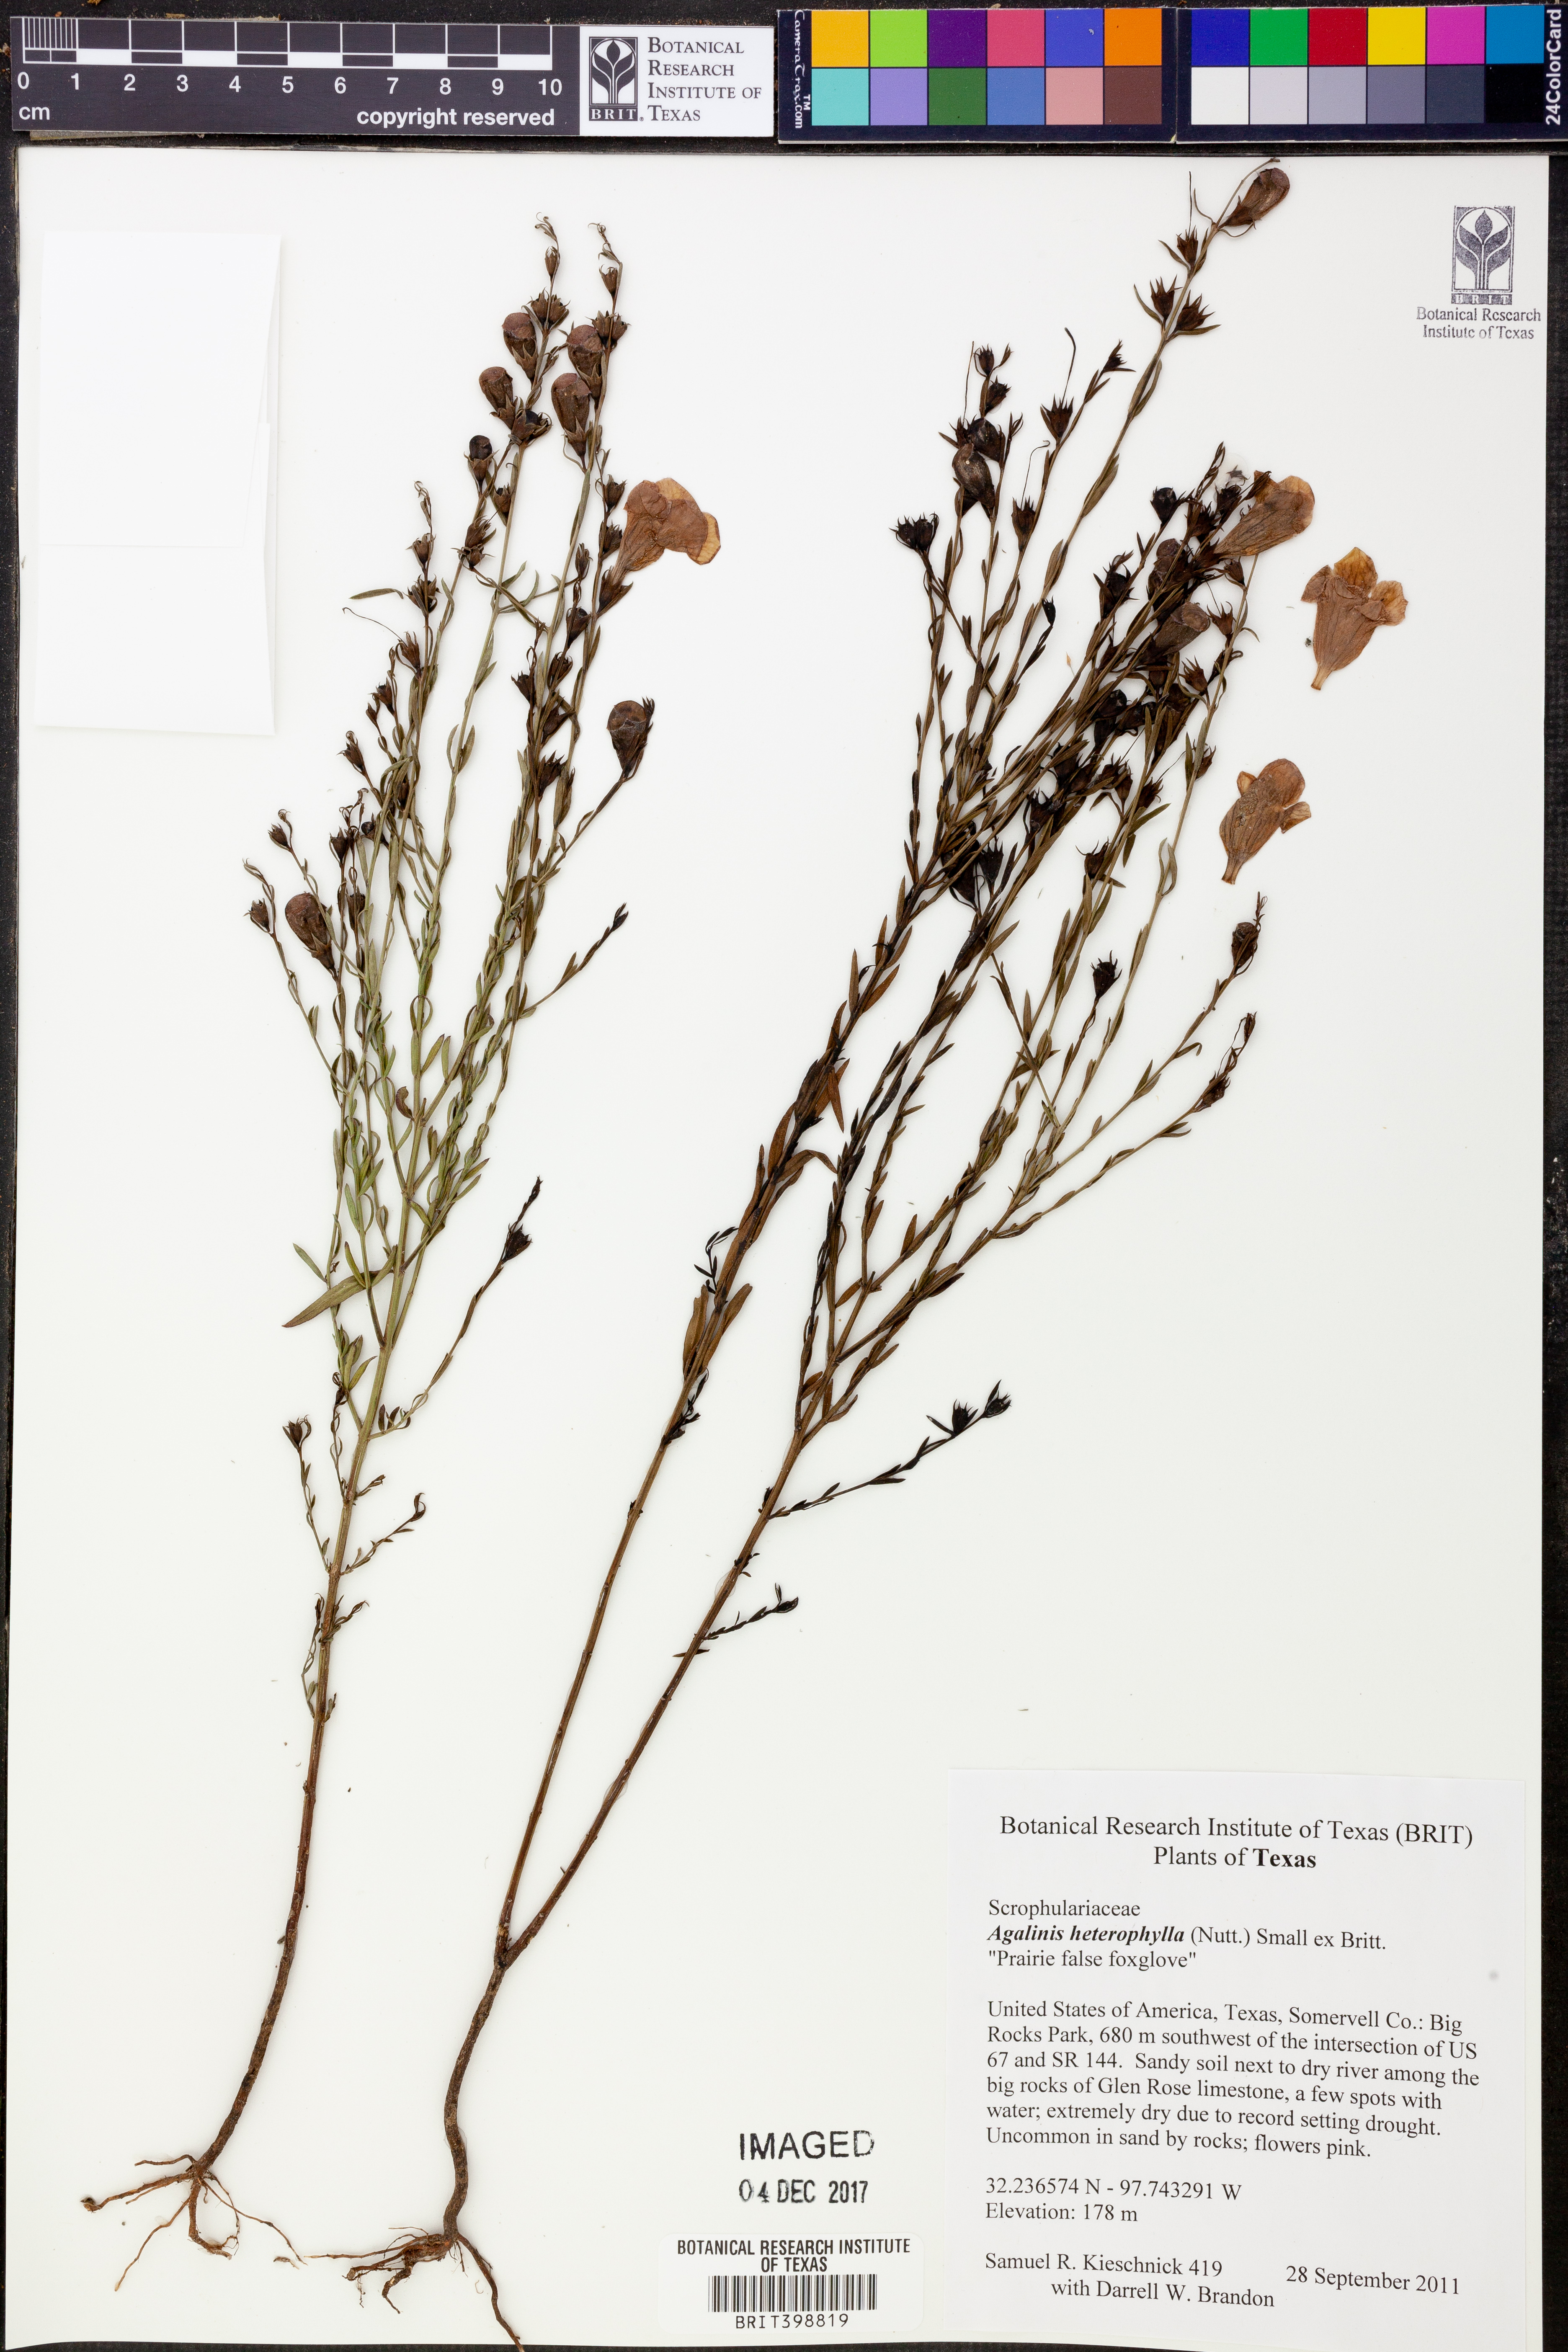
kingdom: Plantae
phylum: Tracheophyta
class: Magnoliopsida
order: Lamiales
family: Orobanchaceae
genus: Agalinis
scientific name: Agalinis heterophylla
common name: Prairie agalinis
